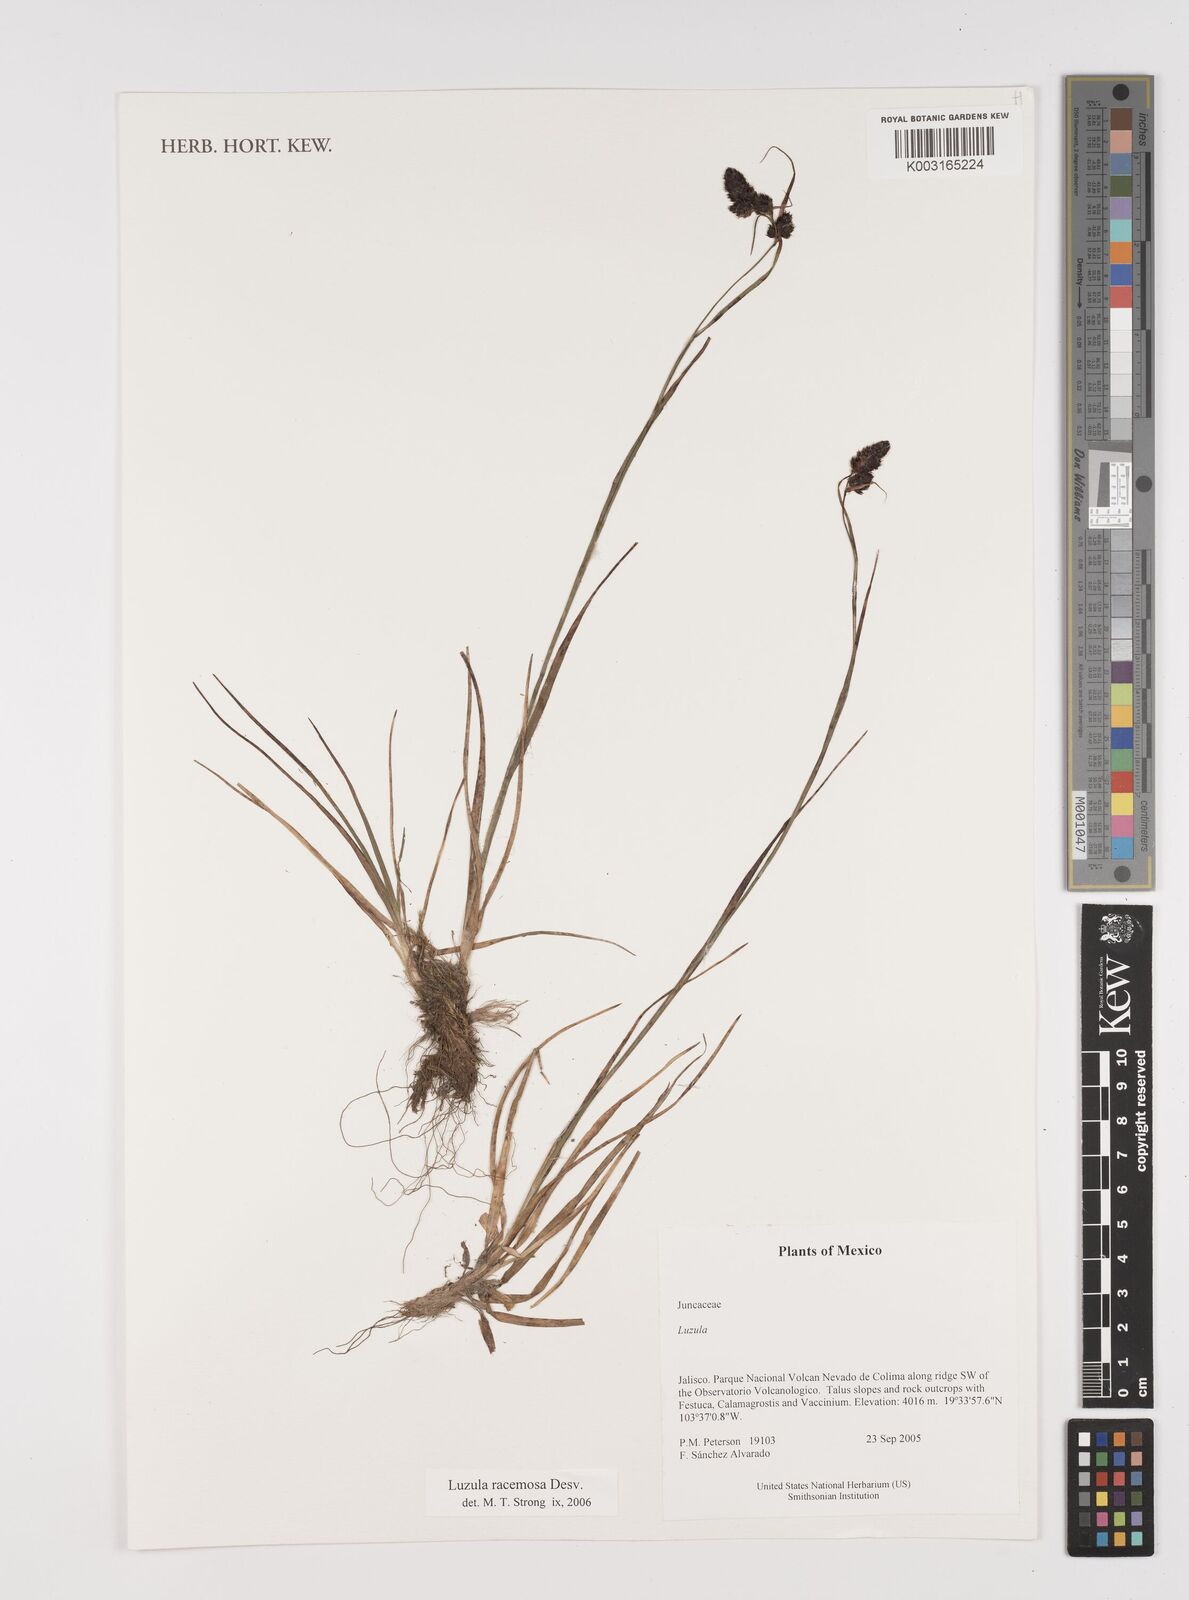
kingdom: Plantae
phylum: Tracheophyta
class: Liliopsida
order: Poales
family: Juncaceae
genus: Luzula
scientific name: Luzula racemosa
